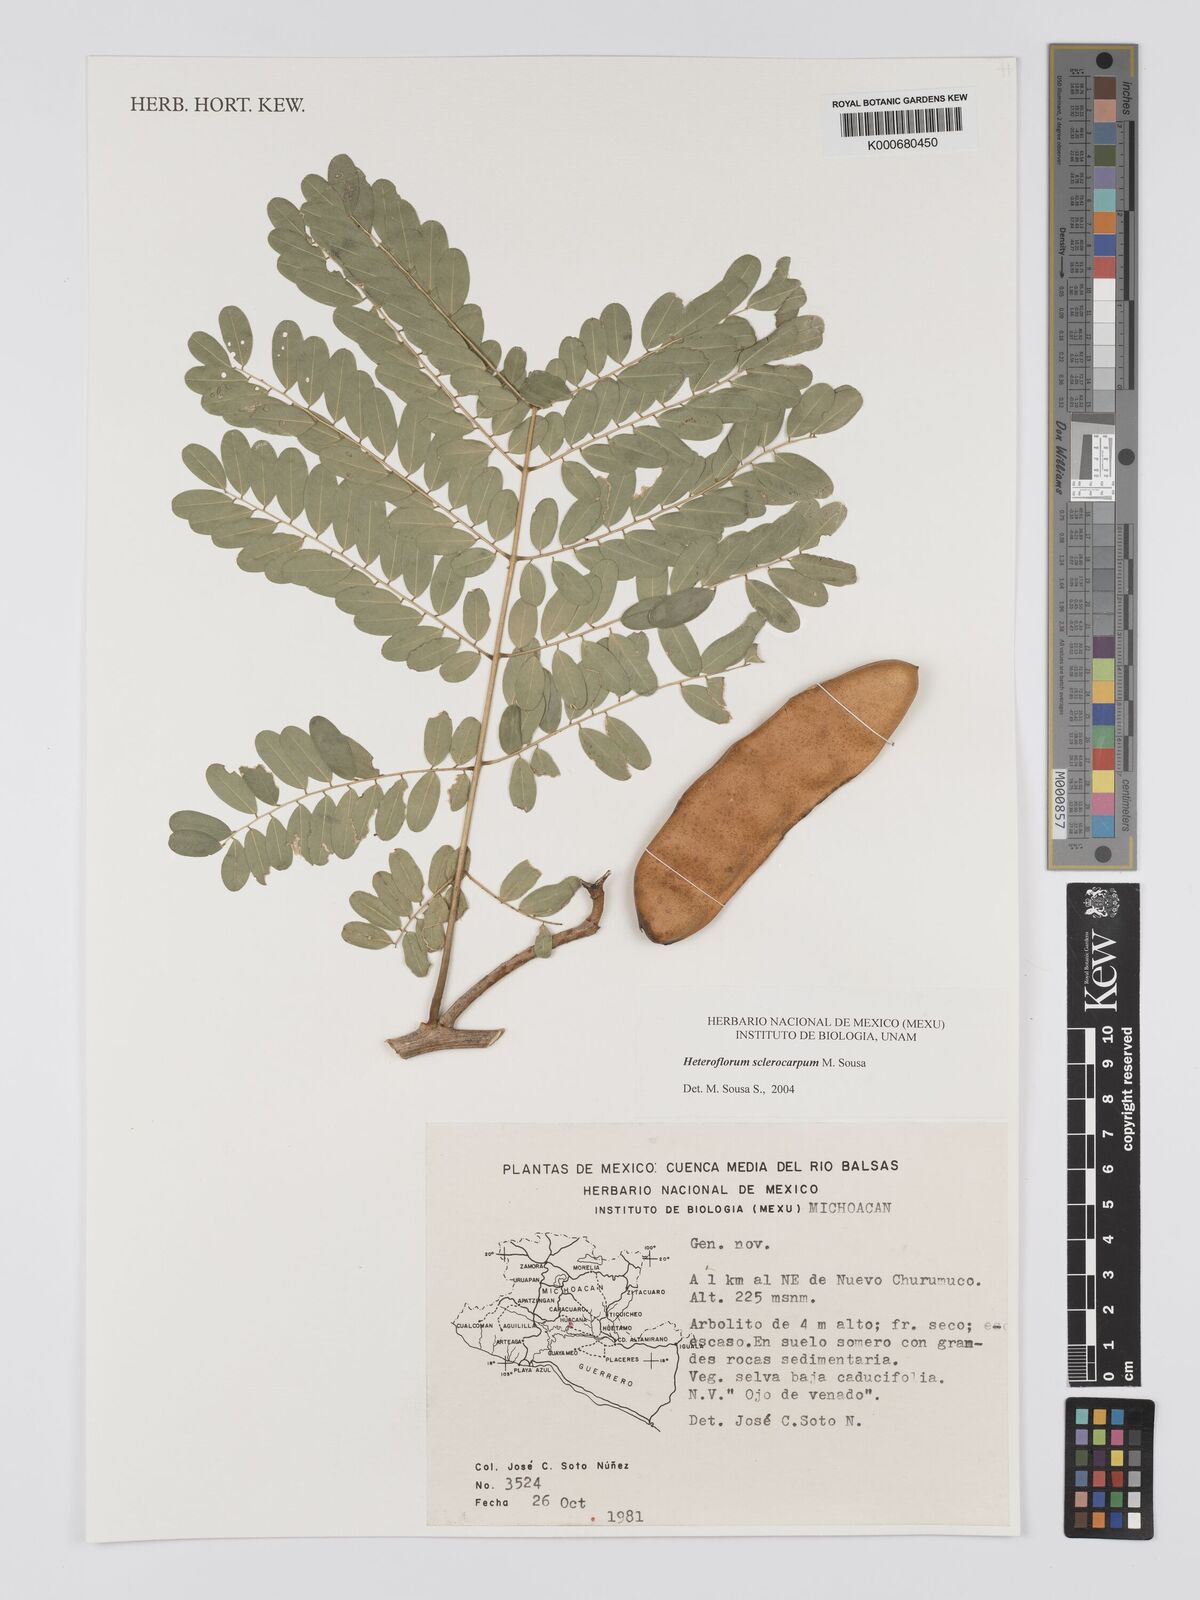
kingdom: Plantae
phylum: Tracheophyta
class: Magnoliopsida
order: Fabales
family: Fabaceae
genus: Heteroflorum
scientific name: Heteroflorum sclerocarpum
